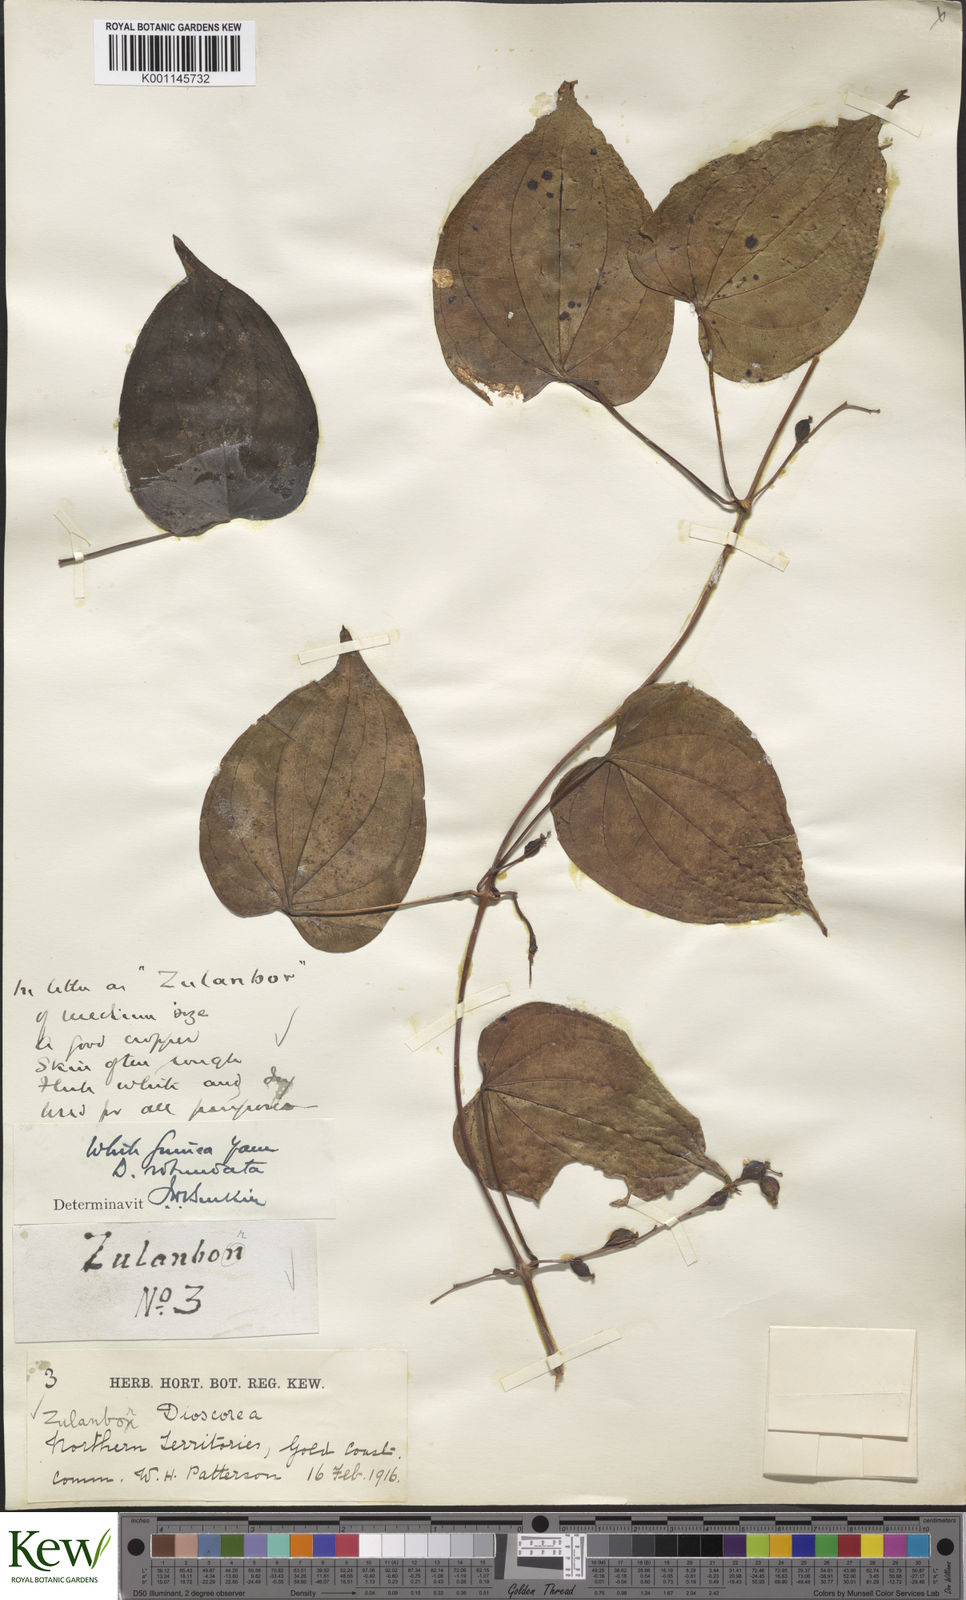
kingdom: Plantae
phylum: Tracheophyta
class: Liliopsida
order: Dioscoreales
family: Dioscoreaceae
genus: Dioscorea
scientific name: Dioscorea cayenensis
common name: Attoto yam
